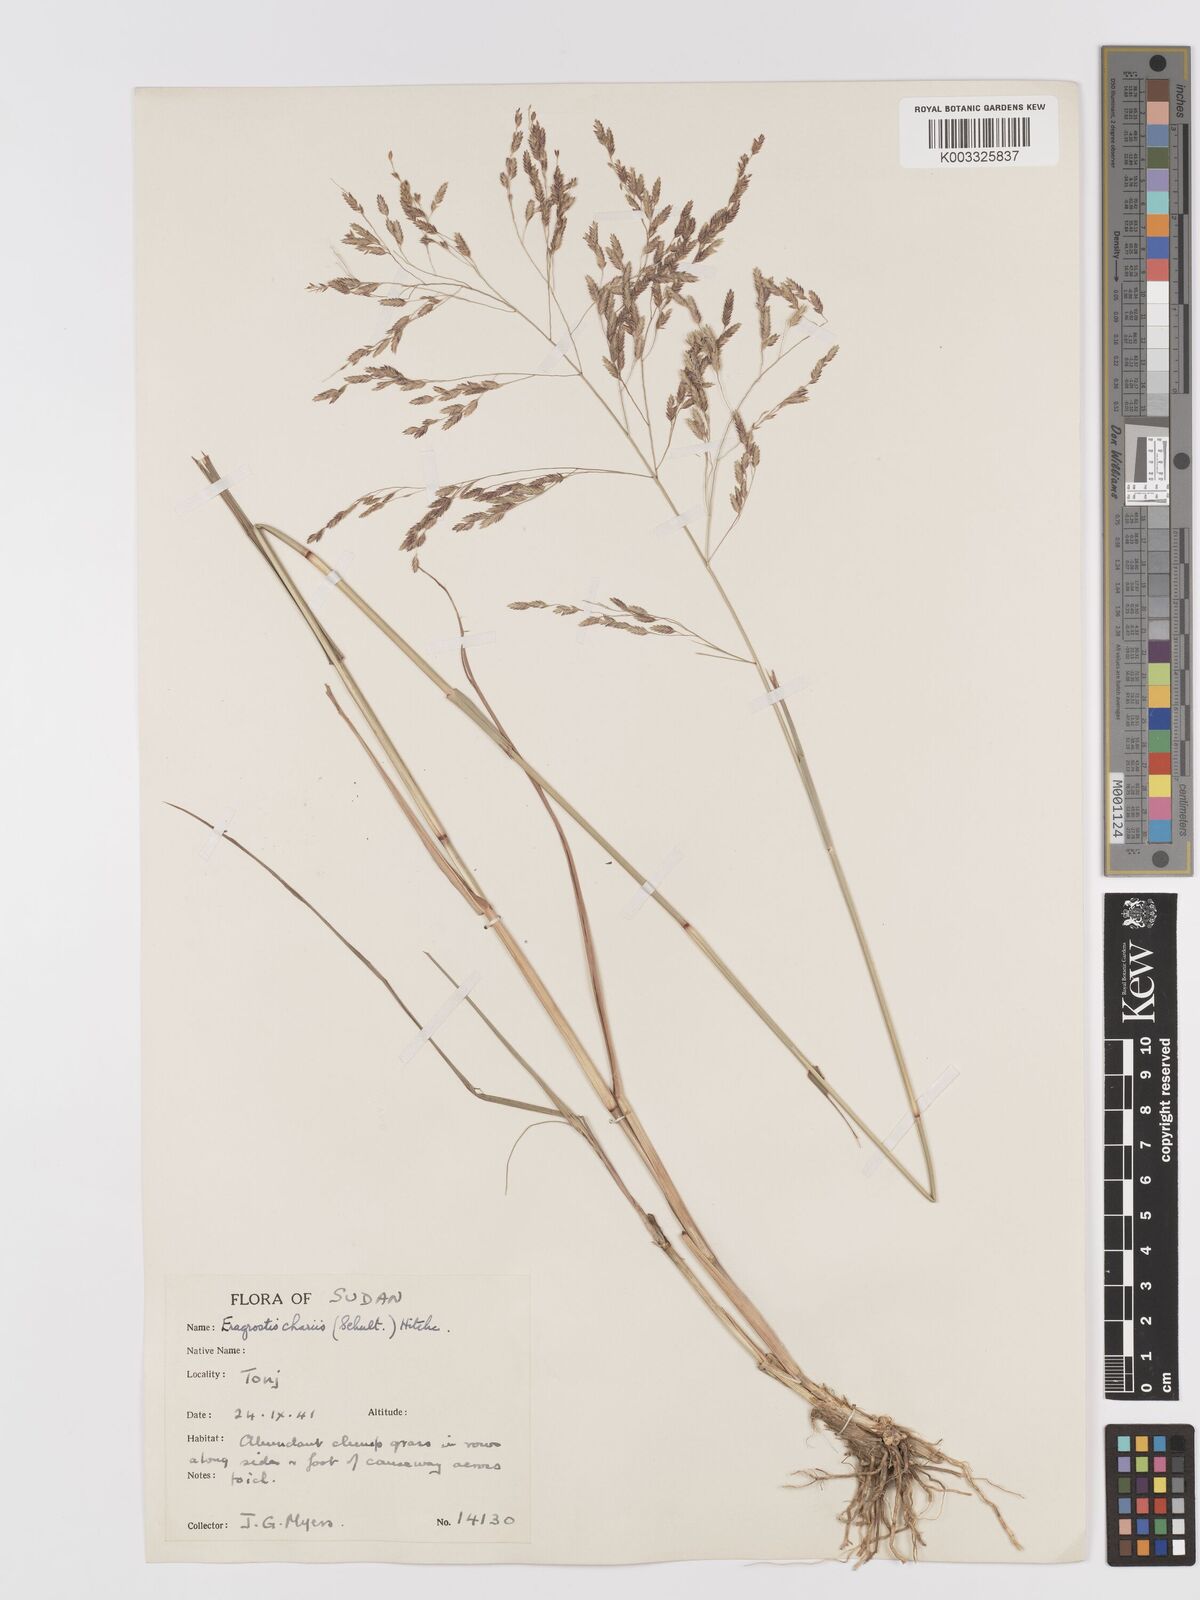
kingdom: Plantae
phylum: Tracheophyta
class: Liliopsida
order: Poales
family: Poaceae
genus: Eragrostis
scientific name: Eragrostis atrovirens
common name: Thalia lovegrass
